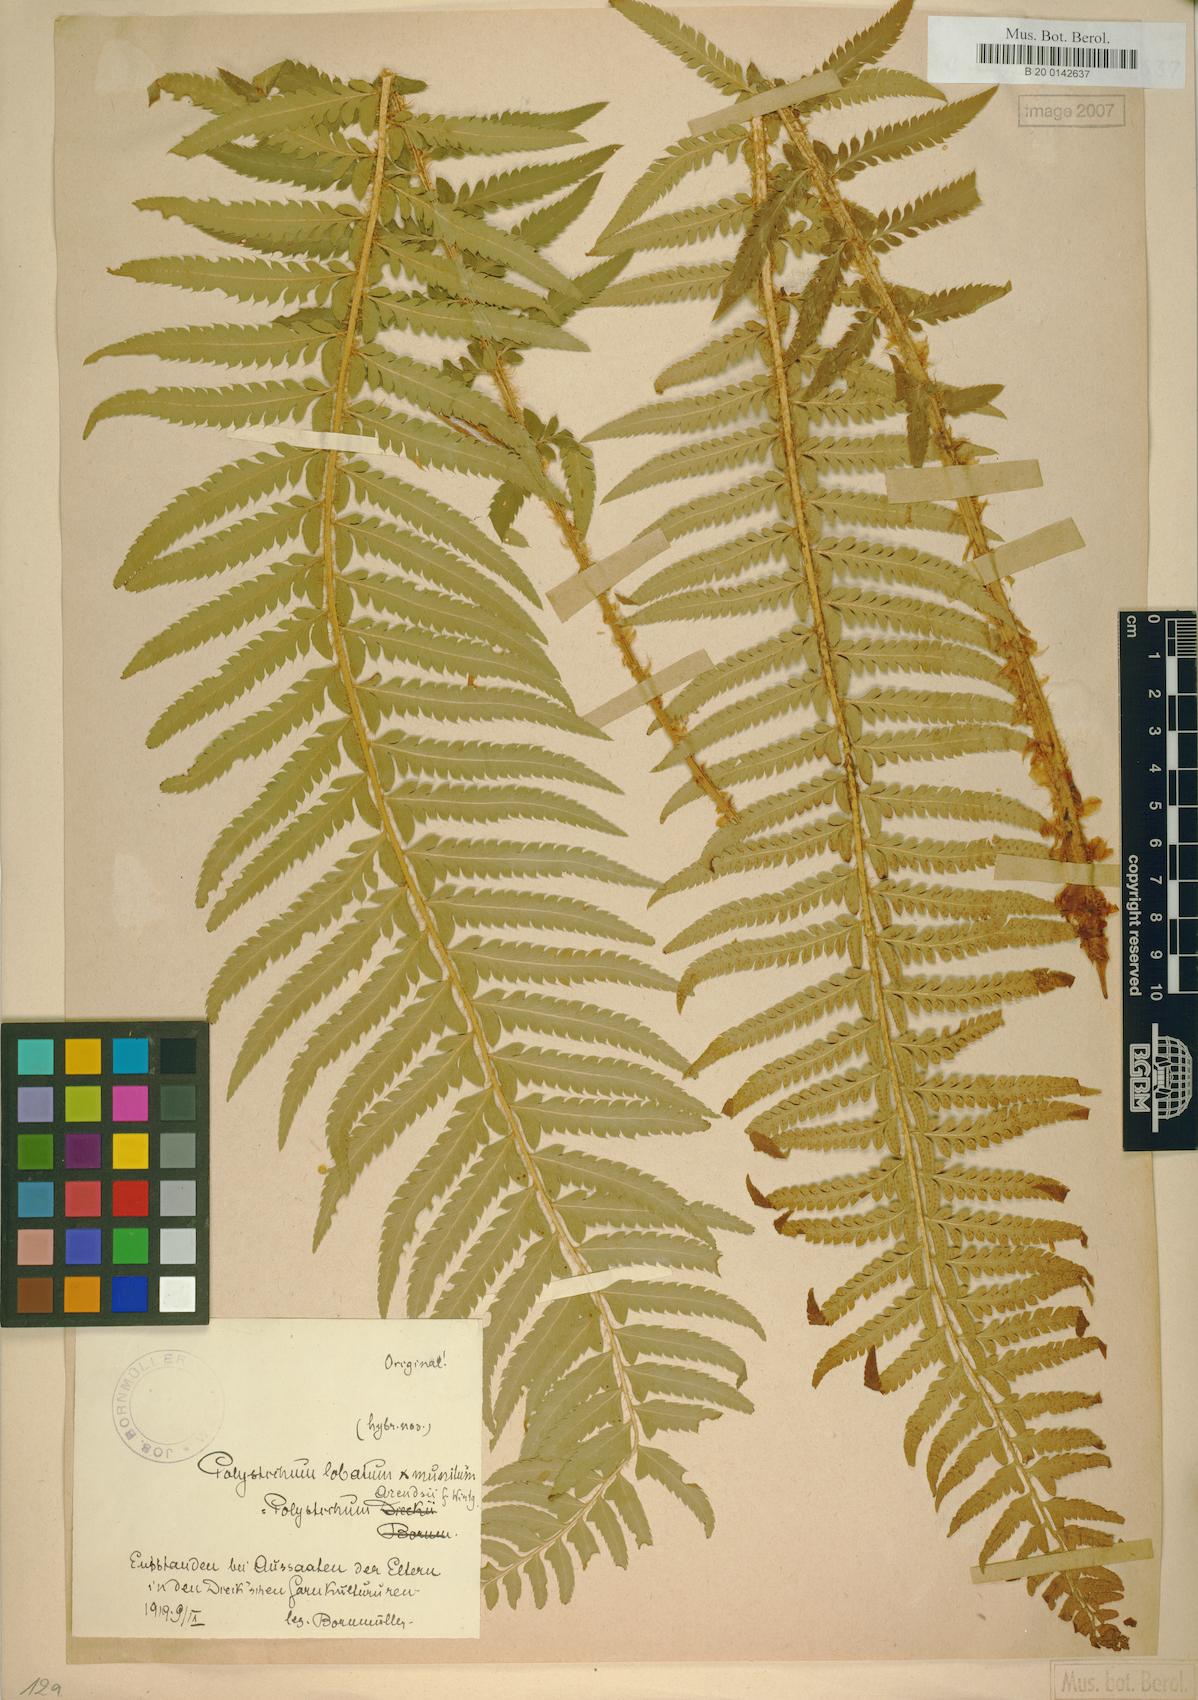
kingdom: Plantae
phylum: Tracheophyta
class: Polypodiopsida
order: Polypodiales
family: Dryopteridaceae
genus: Polystichum
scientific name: Polystichum
